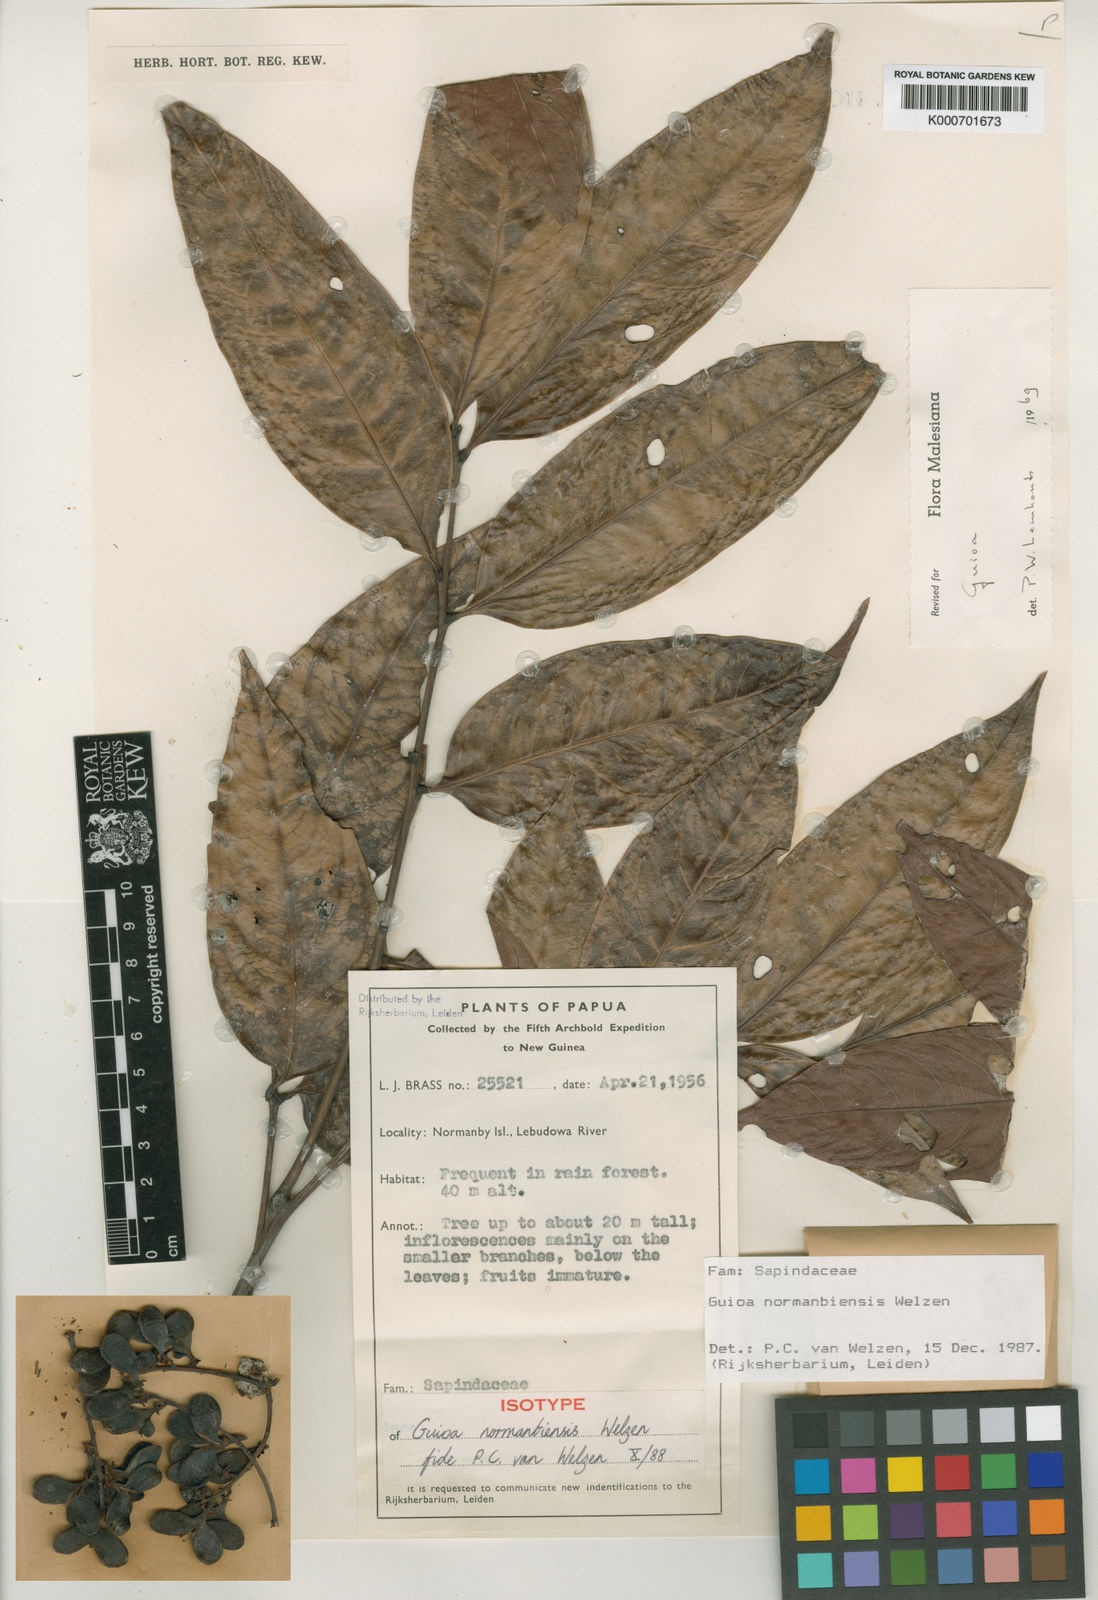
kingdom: Plantae
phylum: Tracheophyta
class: Magnoliopsida
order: Sapindales
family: Sapindaceae
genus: Guioa
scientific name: Guioa normanbiensis
